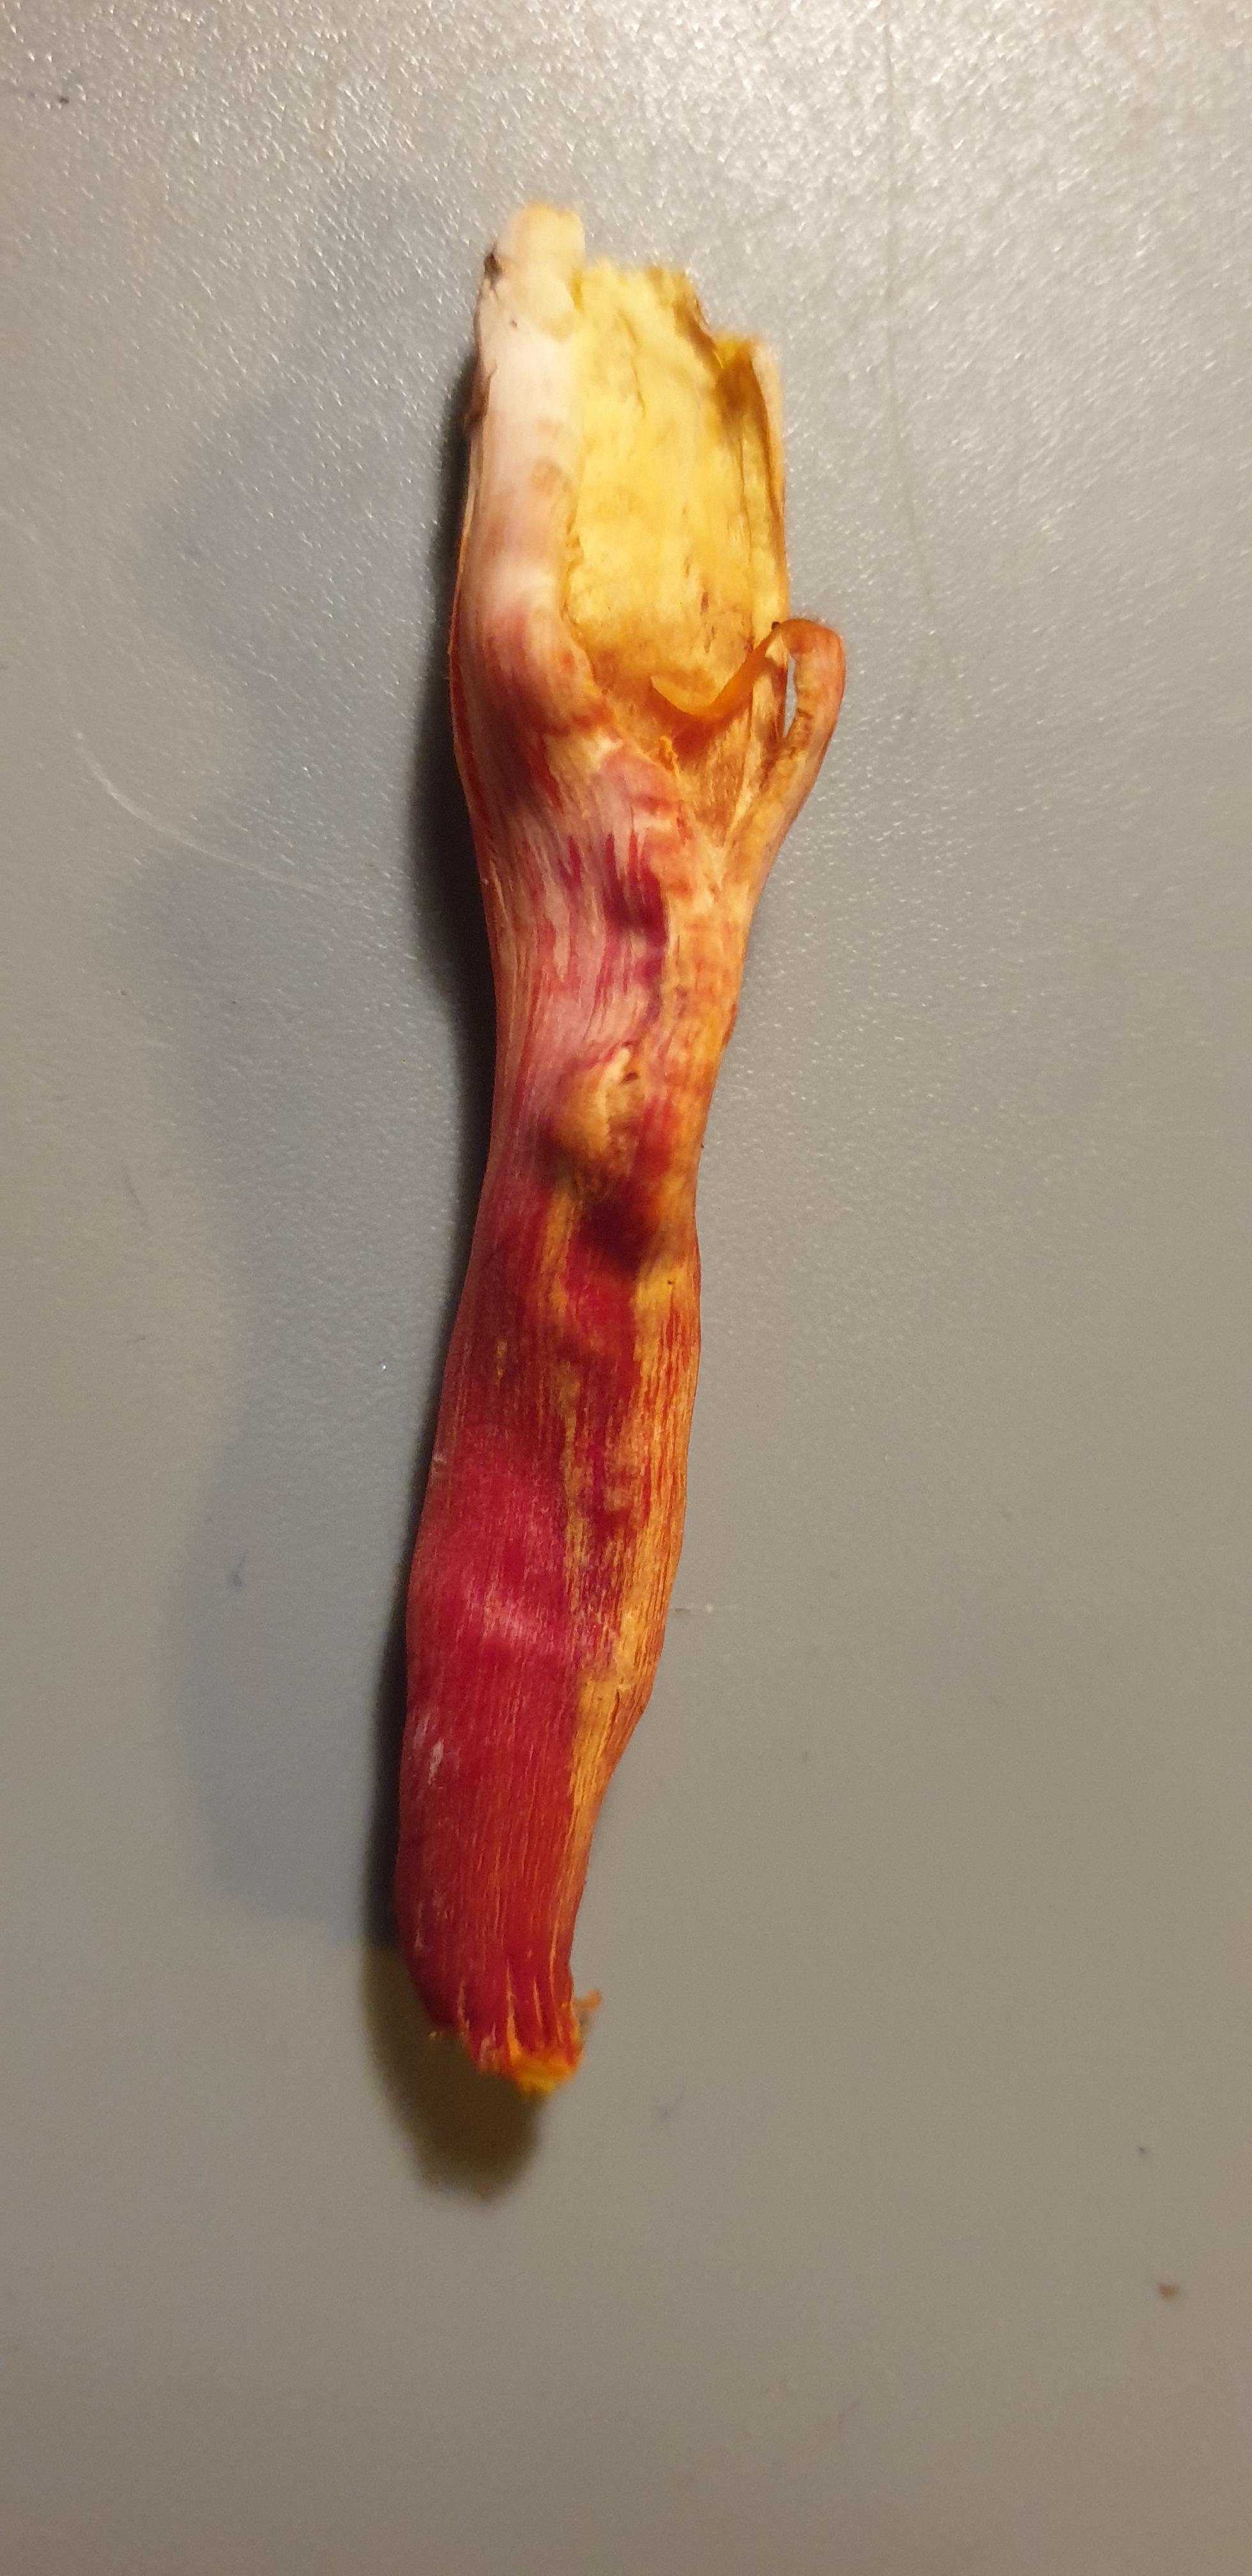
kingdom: Fungi
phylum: Basidiomycota
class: Agaricomycetes
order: Agaricales
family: Hygrophoraceae
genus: Hygrocybe
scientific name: Hygrocybe coccinea
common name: cinnober-vokshat
